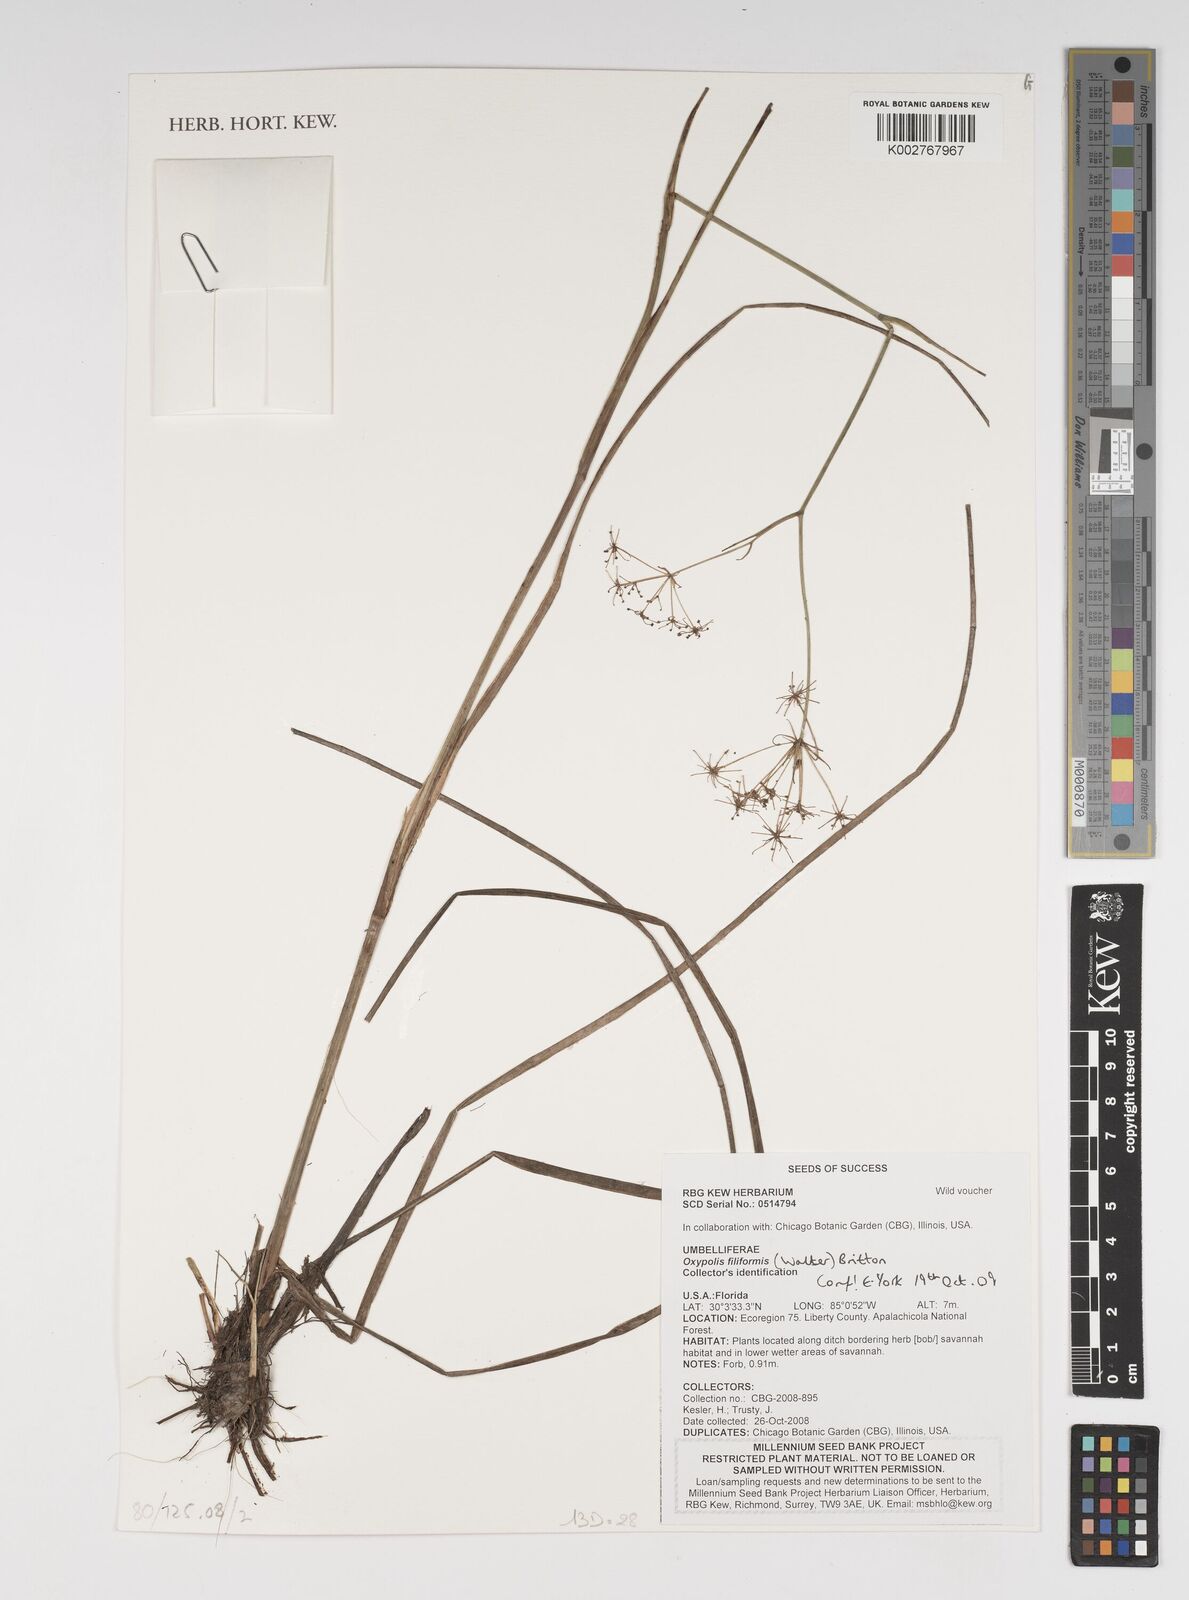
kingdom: Plantae
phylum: Tracheophyta
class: Magnoliopsida
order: Apiales
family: Apiaceae
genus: Tiedemannia
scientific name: Tiedemannia filiformis
